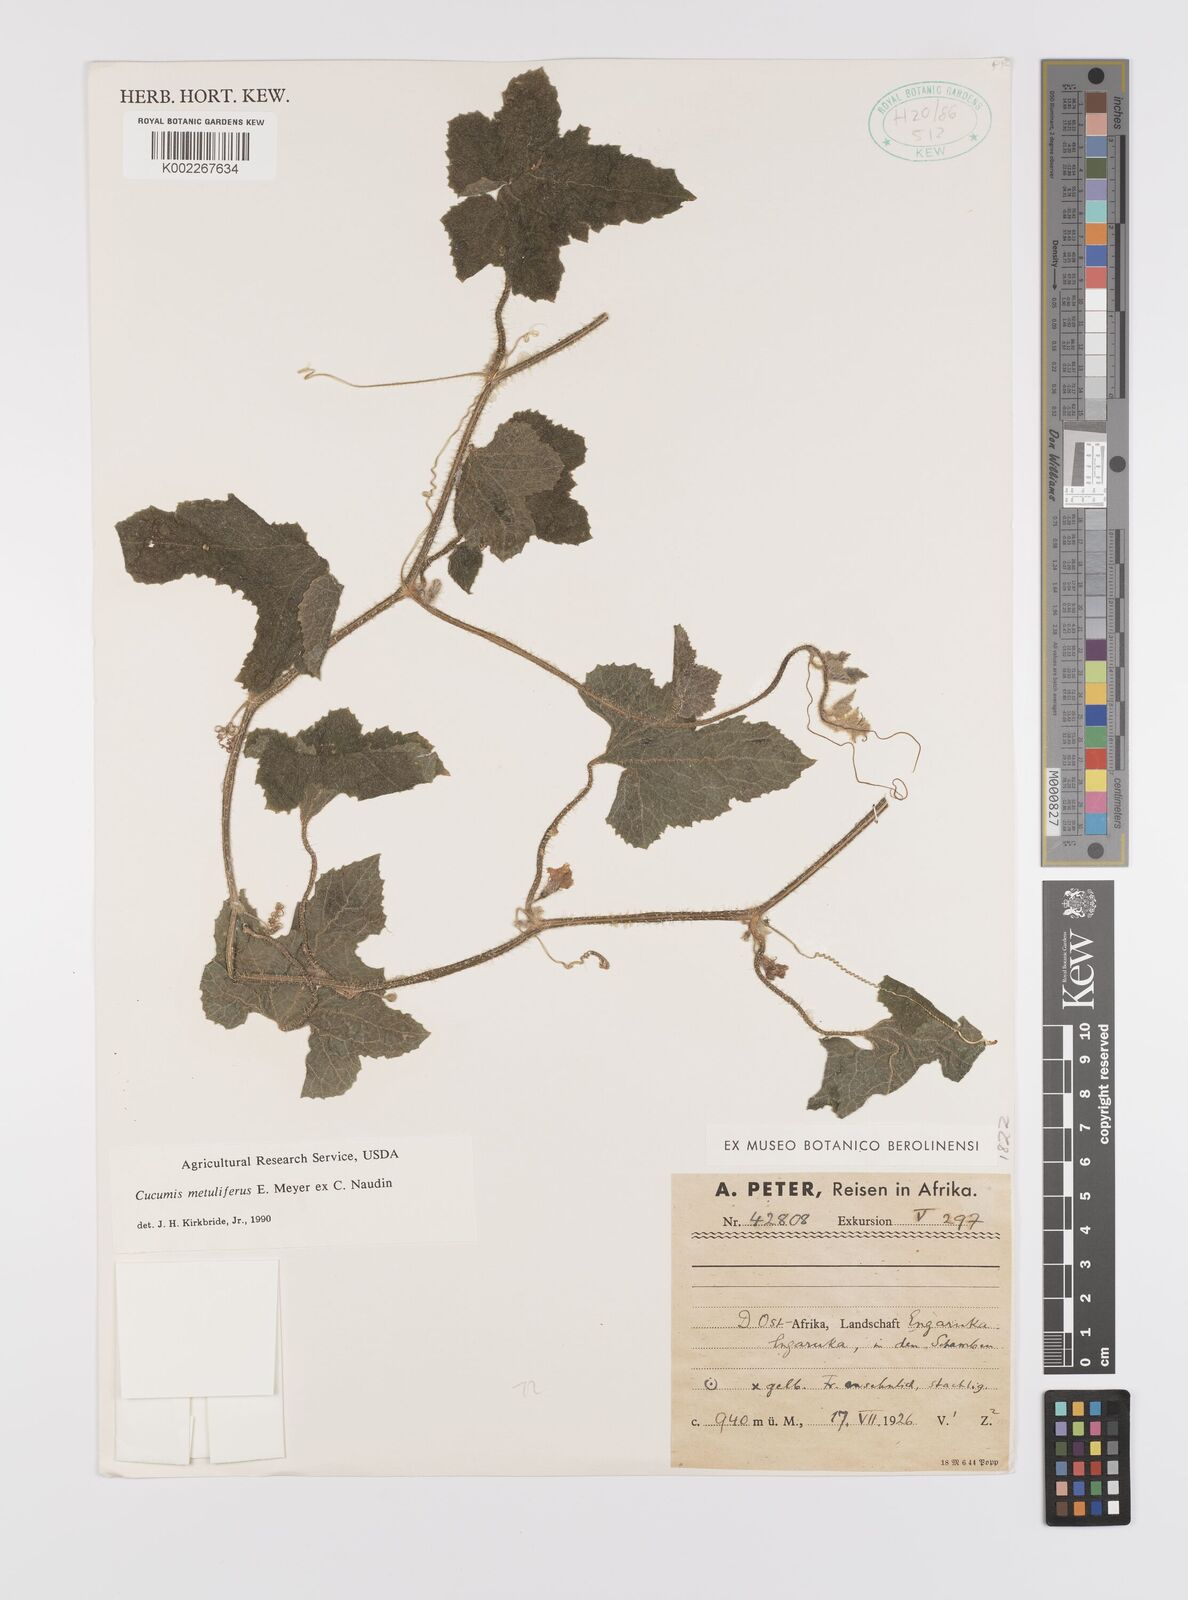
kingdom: Plantae
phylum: Tracheophyta
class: Magnoliopsida
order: Cucurbitales
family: Cucurbitaceae
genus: Cucumis
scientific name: Cucumis metuliferus
